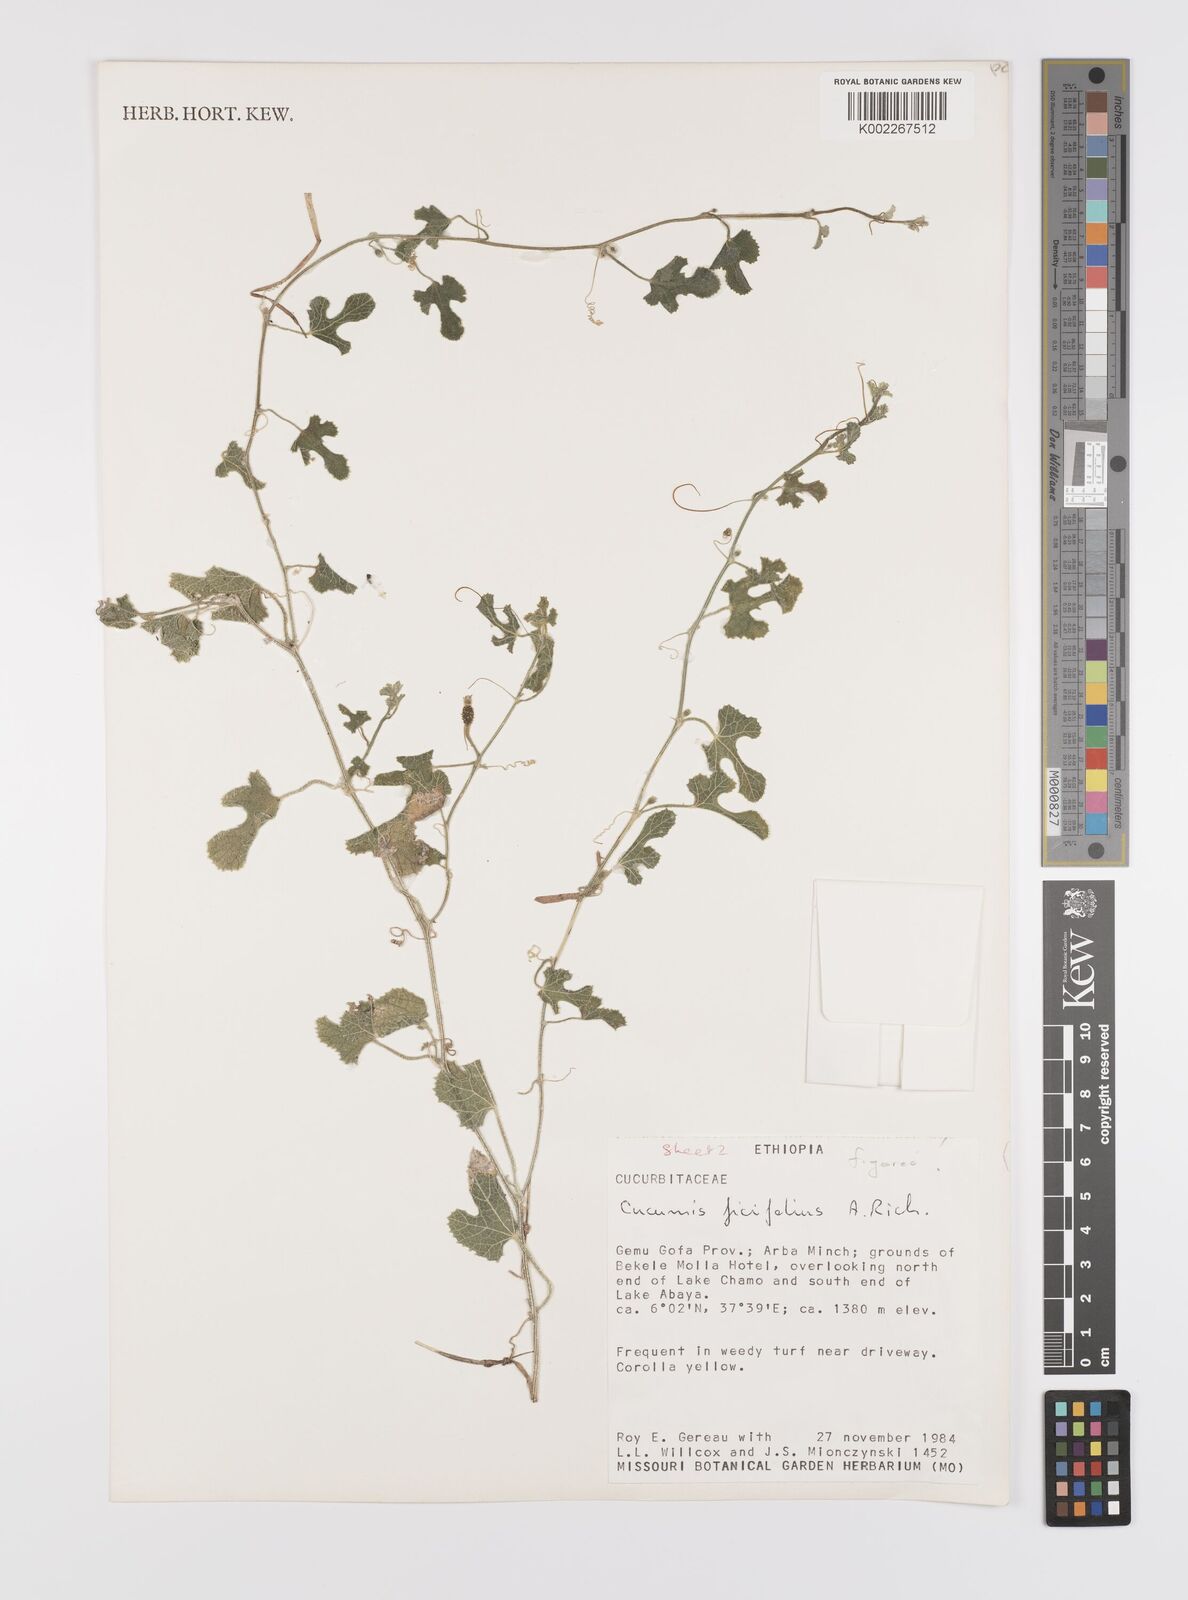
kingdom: Plantae
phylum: Tracheophyta
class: Magnoliopsida
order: Cucurbitales
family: Cucurbitaceae
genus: Cucumis
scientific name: Cucumis pustulatus
